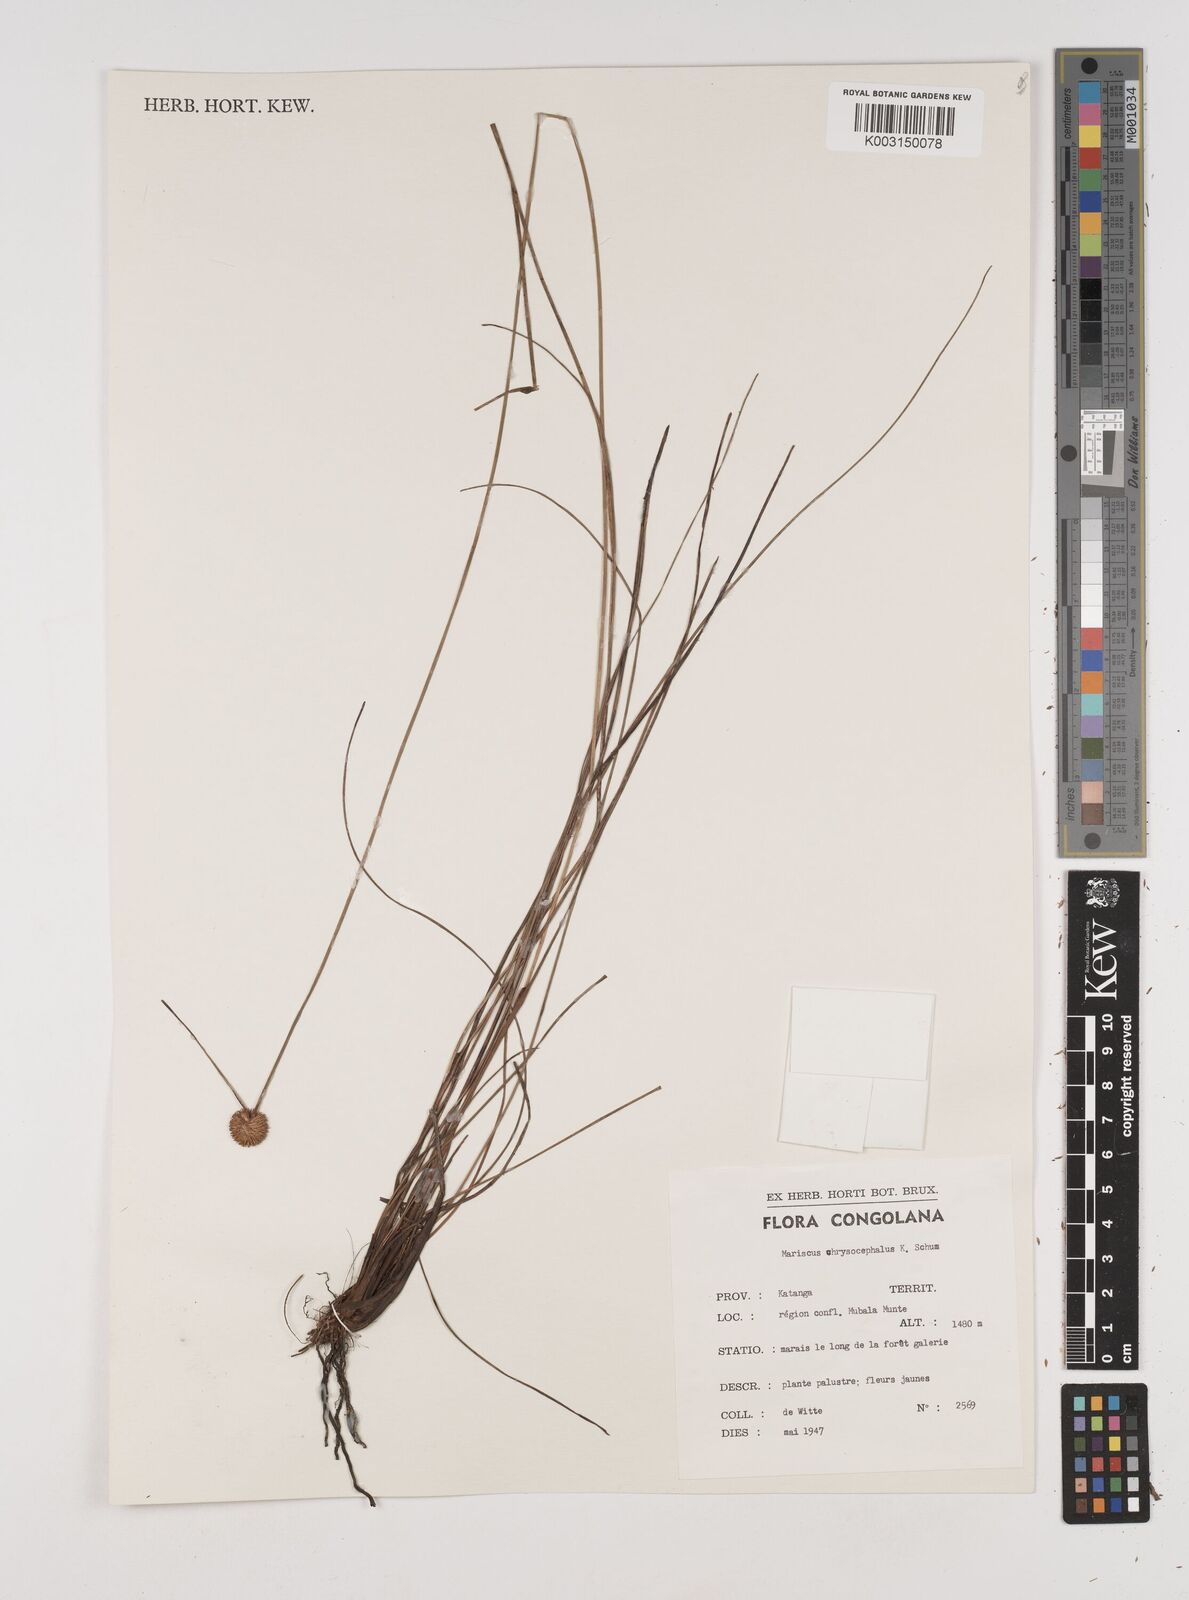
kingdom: Plantae
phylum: Tracheophyta
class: Liliopsida
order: Poales
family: Cyperaceae
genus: Cyperus
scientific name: Cyperus chrysocephalus
